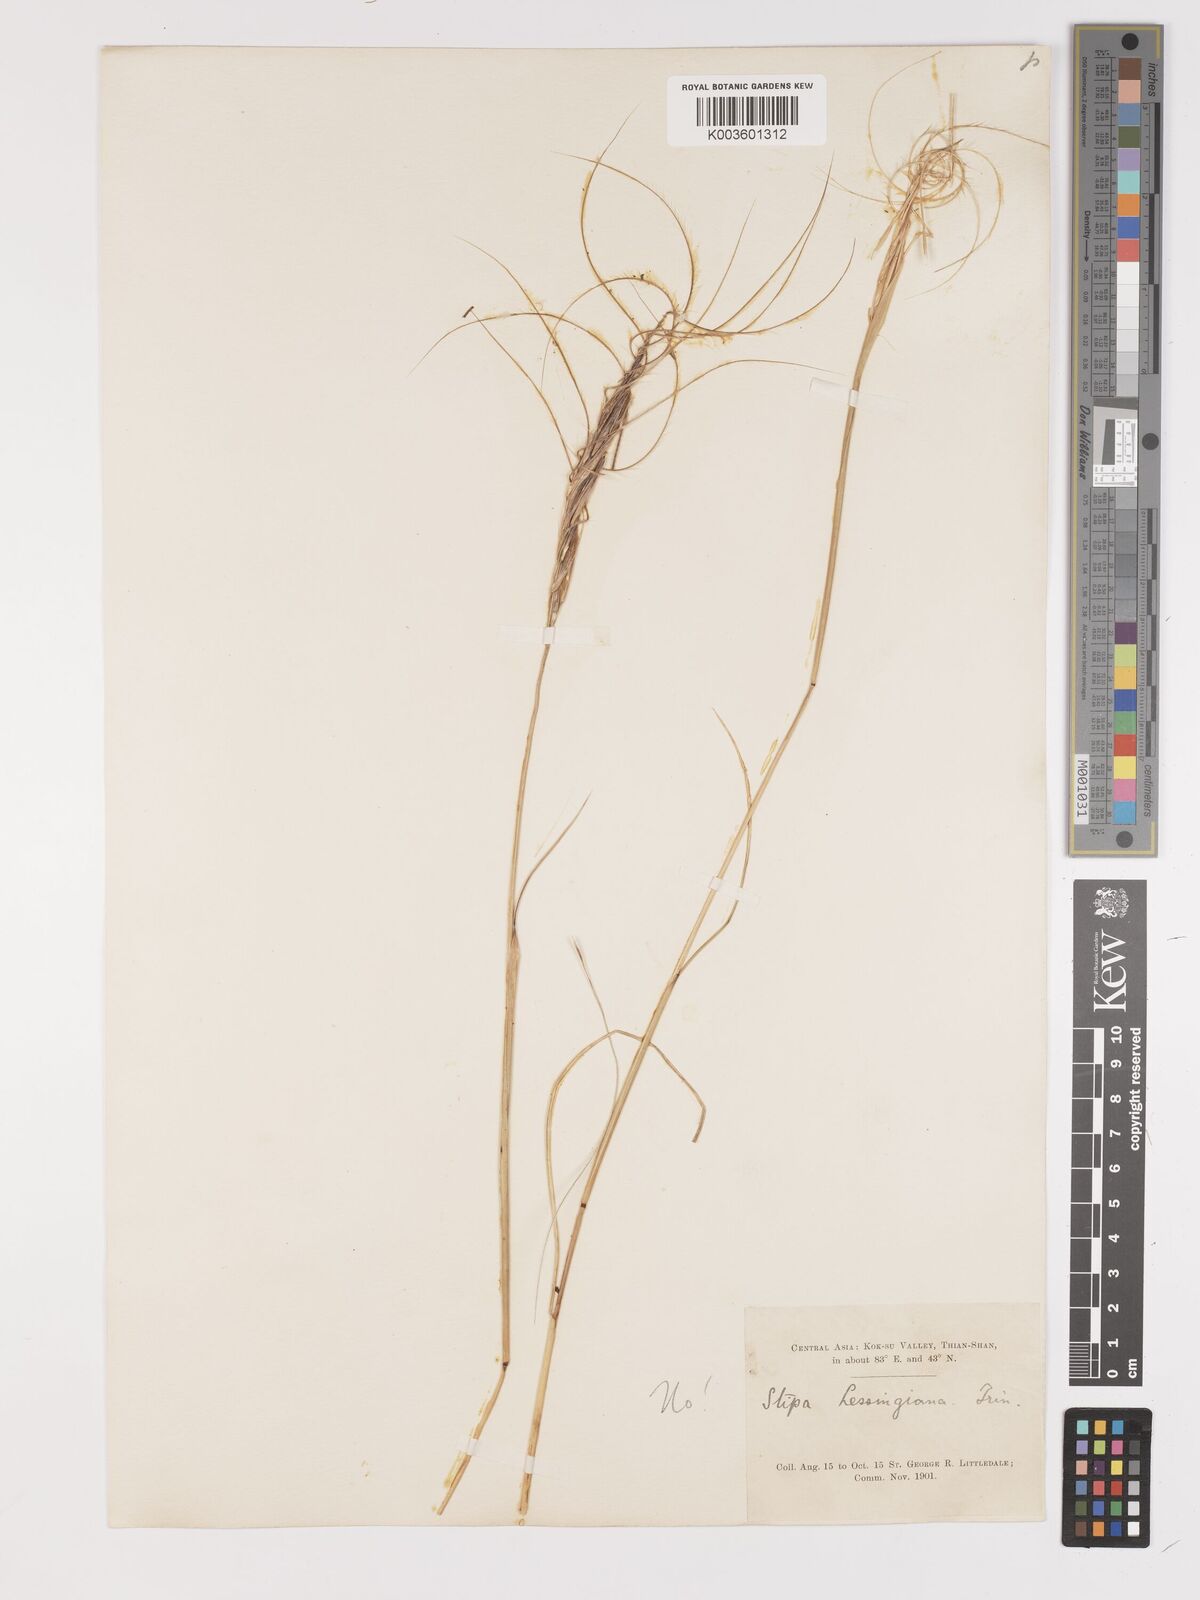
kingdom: Plantae
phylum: Tracheophyta
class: Liliopsida
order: Poales
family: Poaceae
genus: Stipa
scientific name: Stipa
